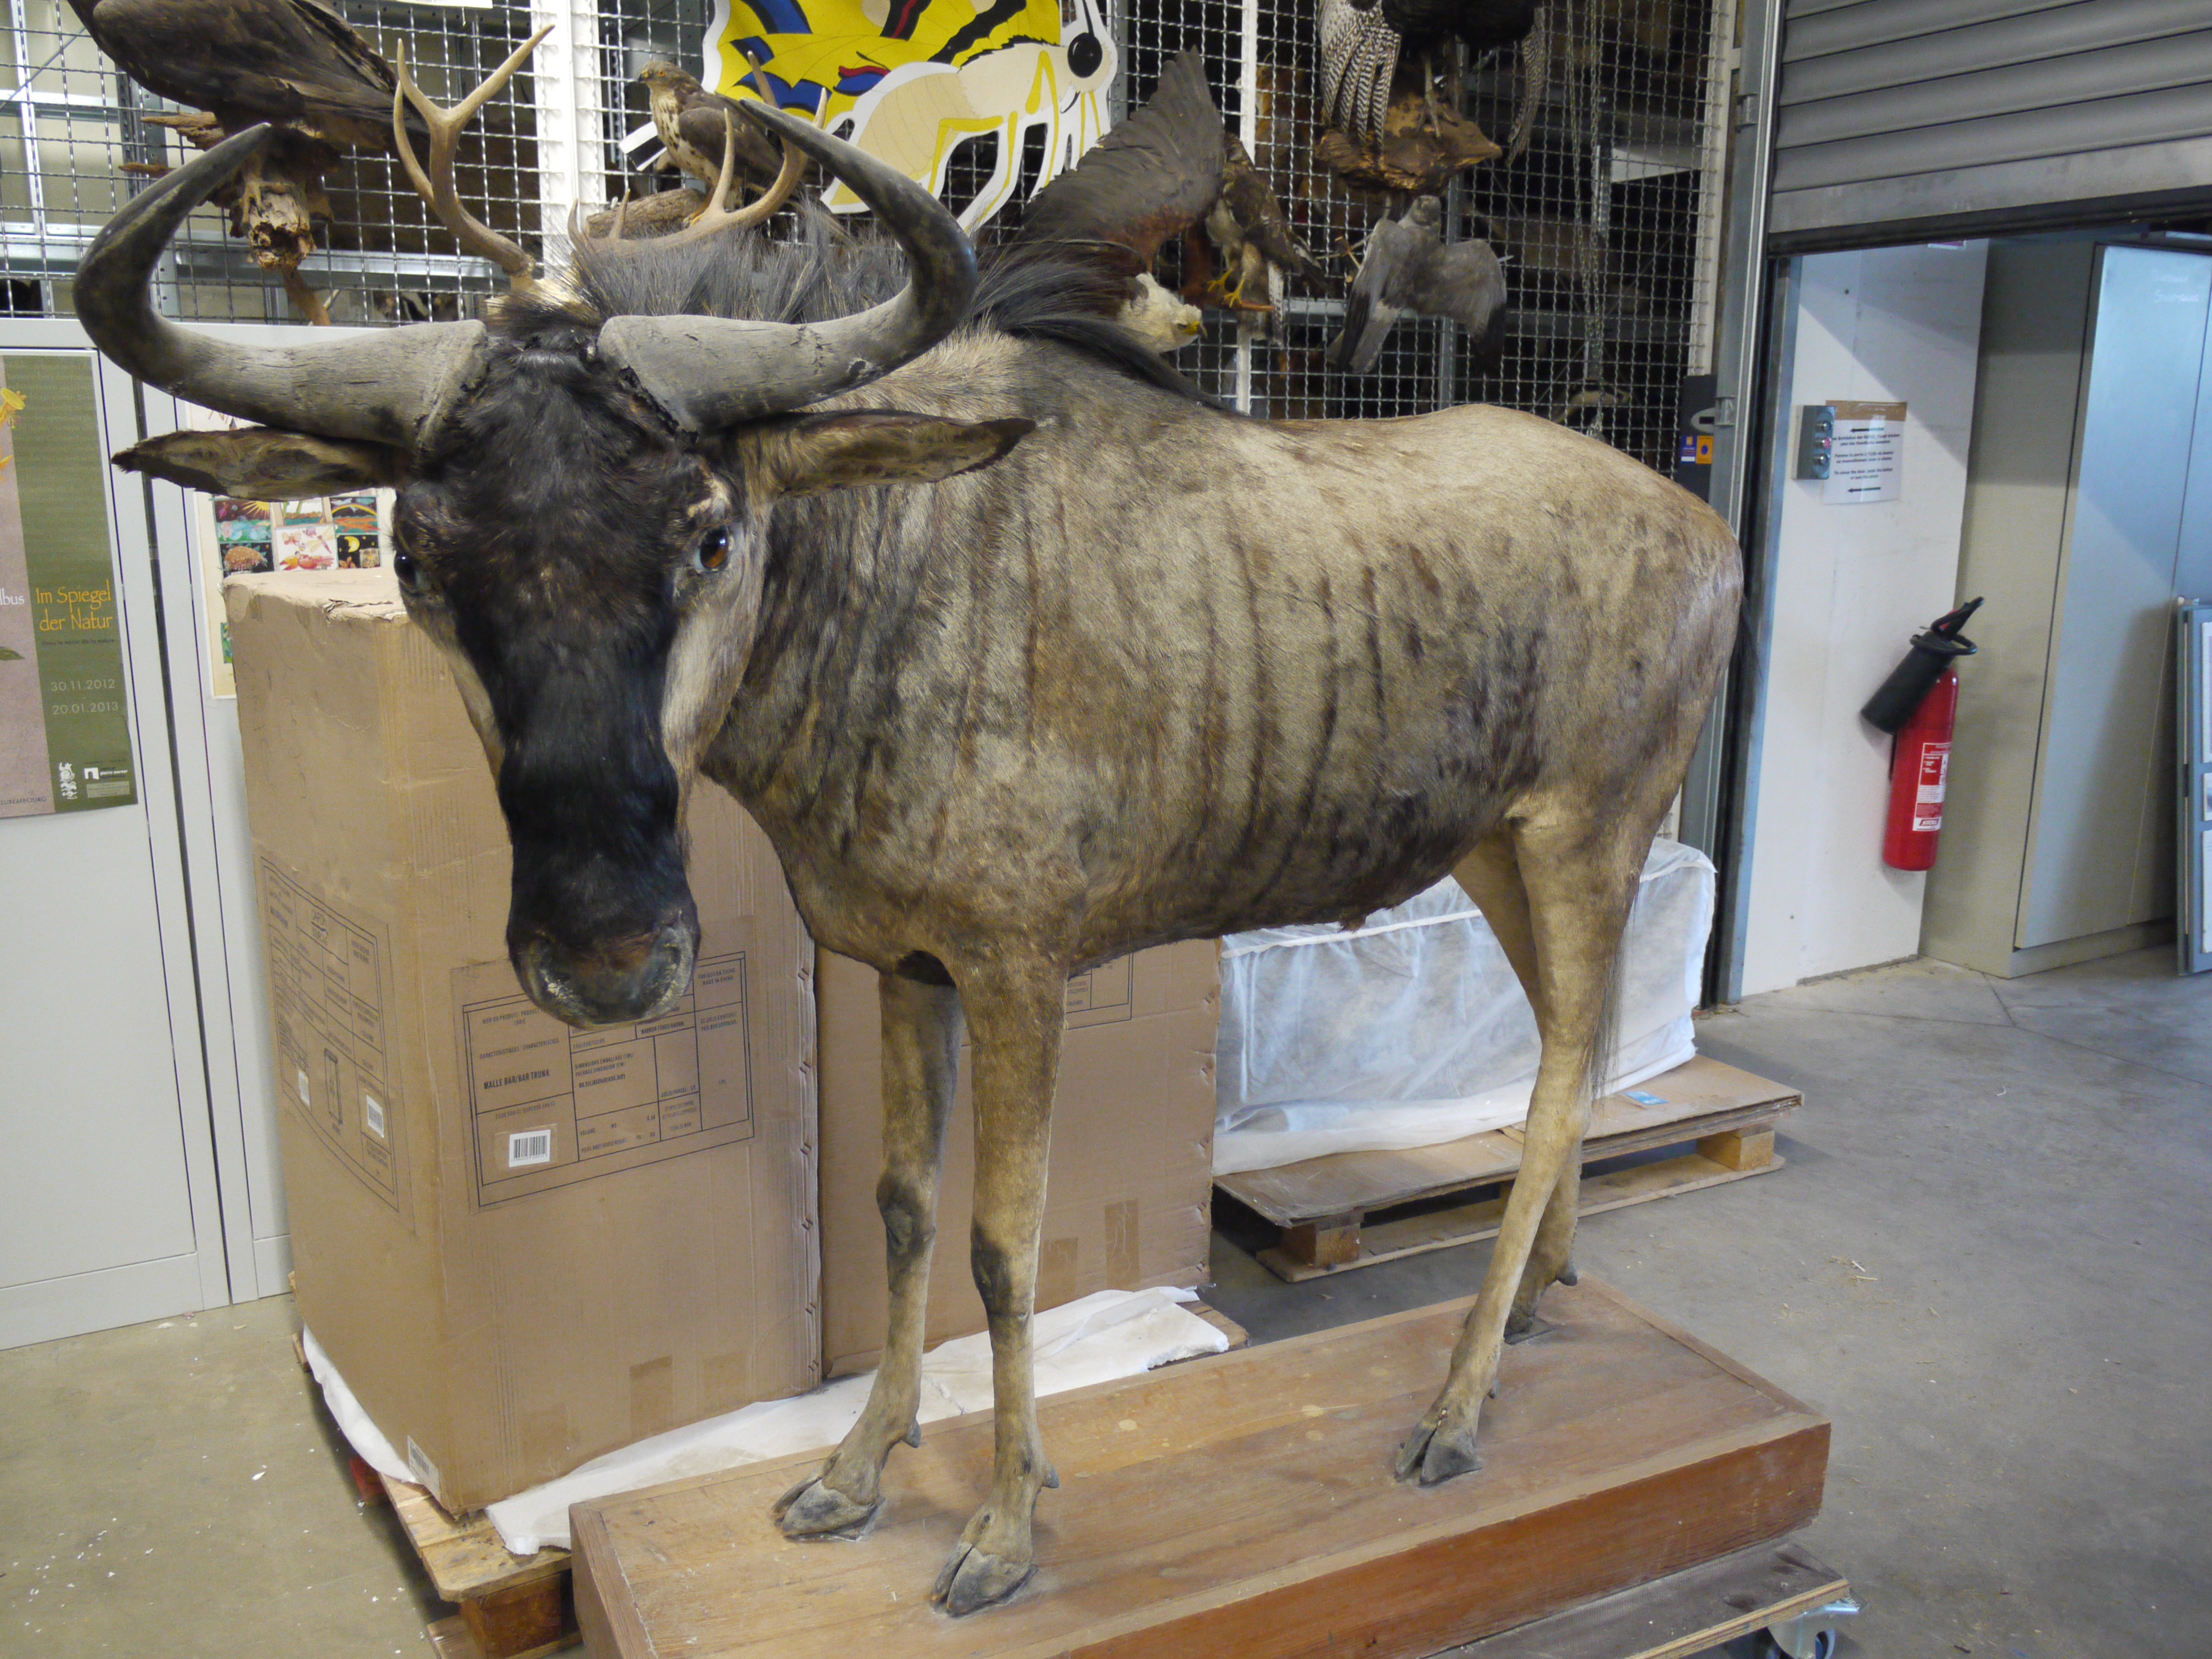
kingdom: Animalia
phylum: Chordata
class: Mammalia
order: Artiodactyla
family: Bovidae
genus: Connochaetes
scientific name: Connochaetes taurinus
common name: Blue wildebeest
